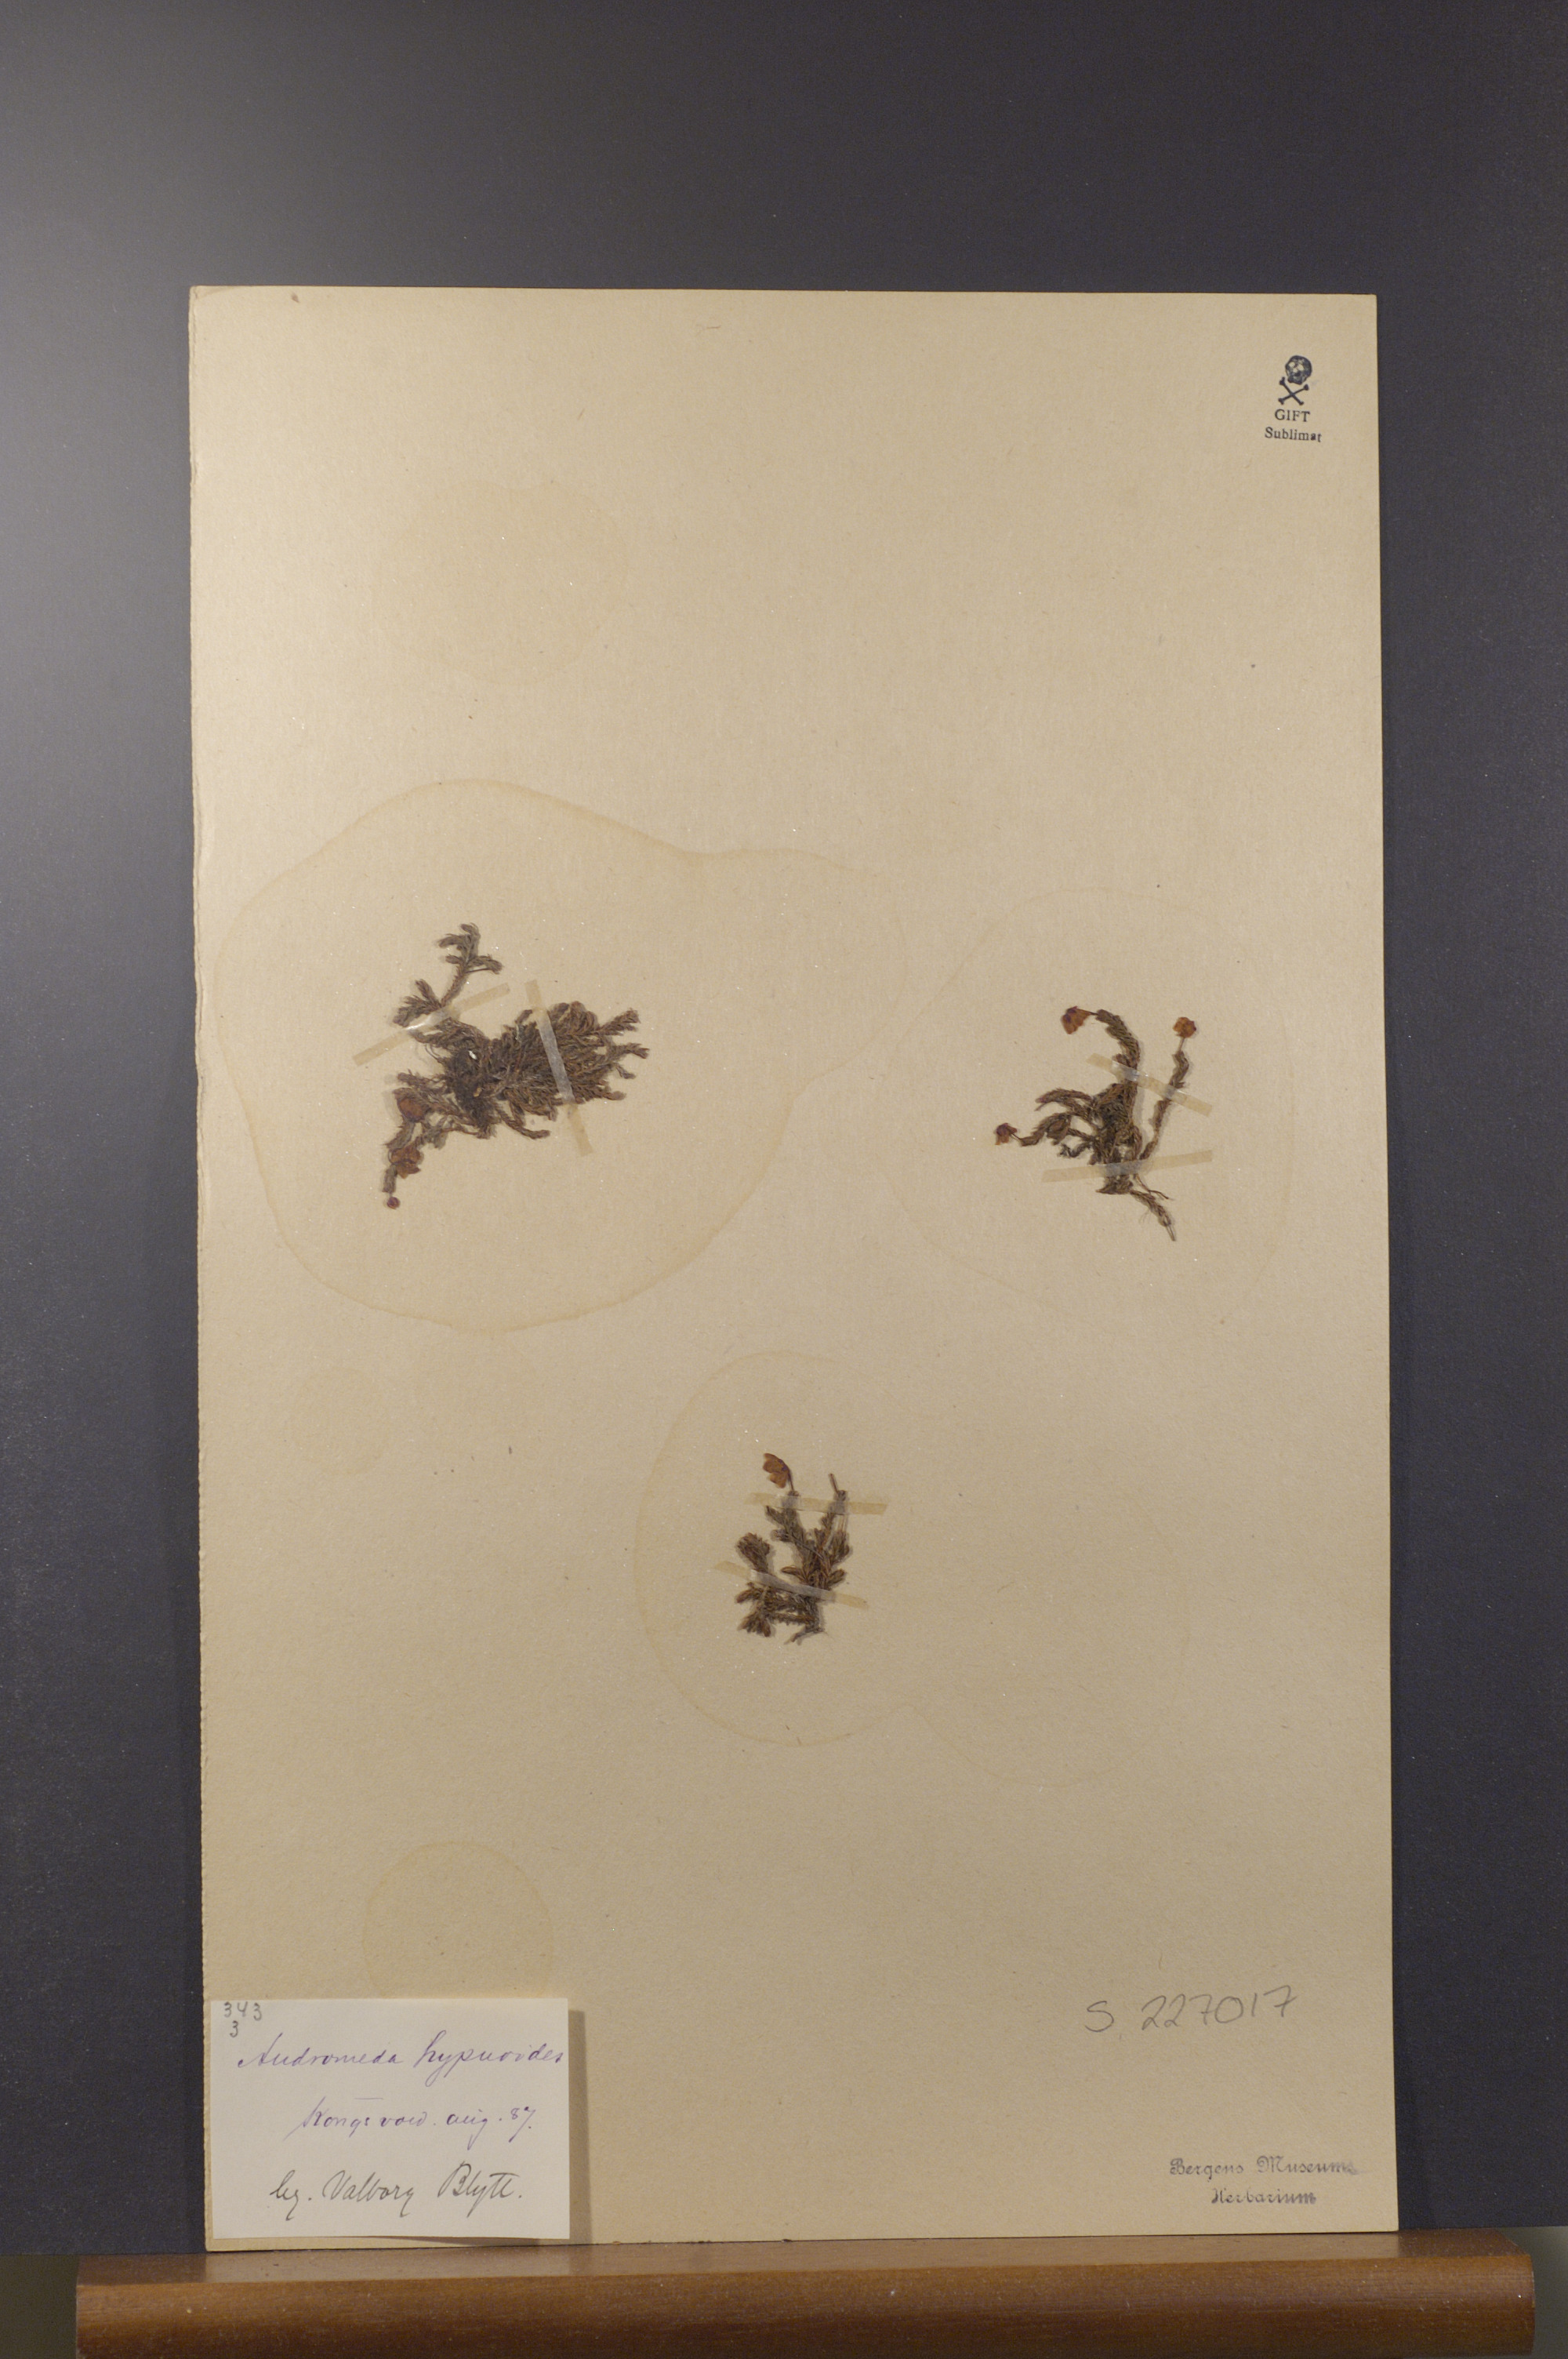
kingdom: Plantae
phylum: Tracheophyta
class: Magnoliopsida
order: Ericales
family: Ericaceae
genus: Harrimanella
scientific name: Harrimanella hypnoides
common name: Moss bell heather
